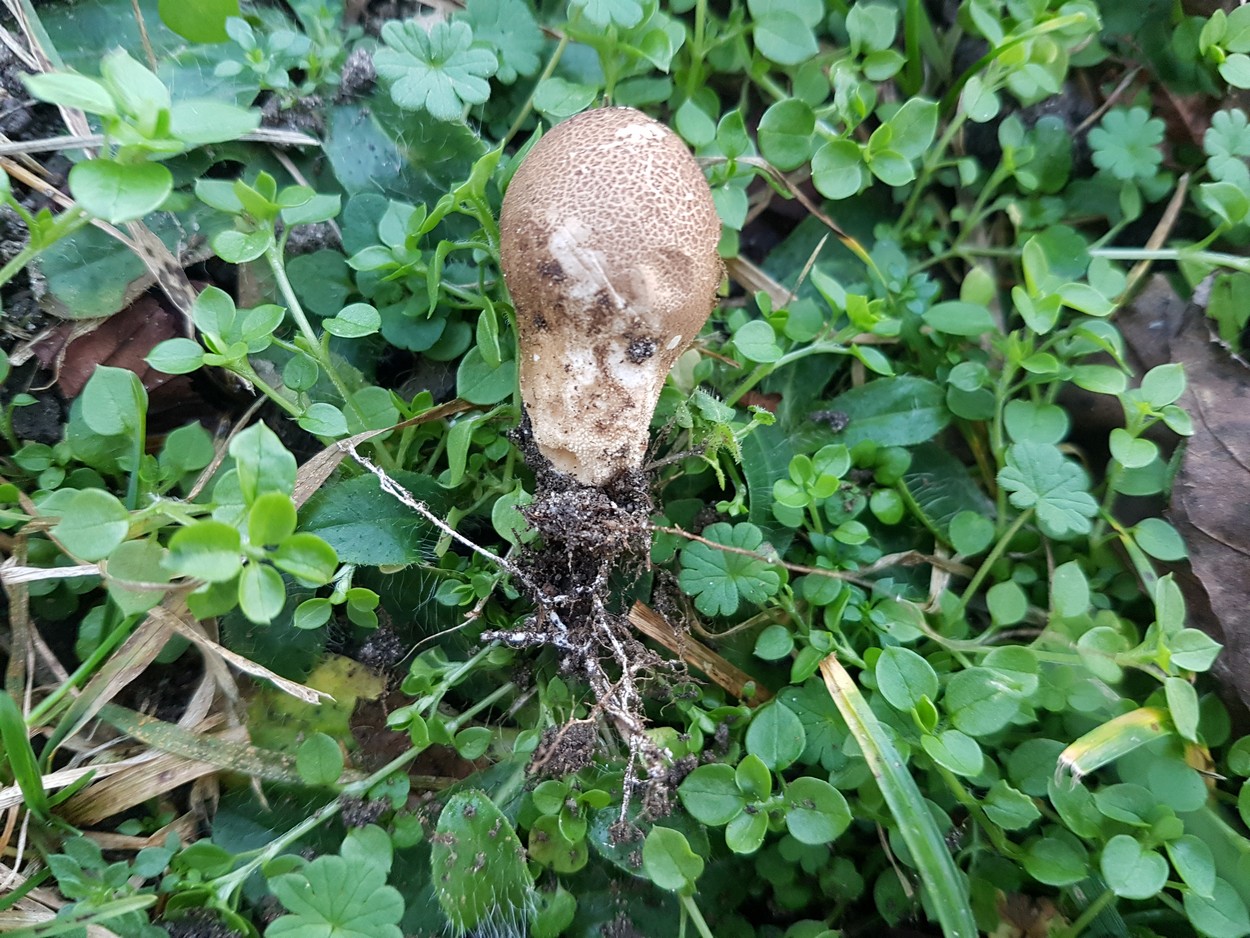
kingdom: Fungi
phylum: Basidiomycota
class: Agaricomycetes
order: Agaricales
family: Lycoperdaceae
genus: Apioperdon
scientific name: Apioperdon pyriforme
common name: pære-støvbold
